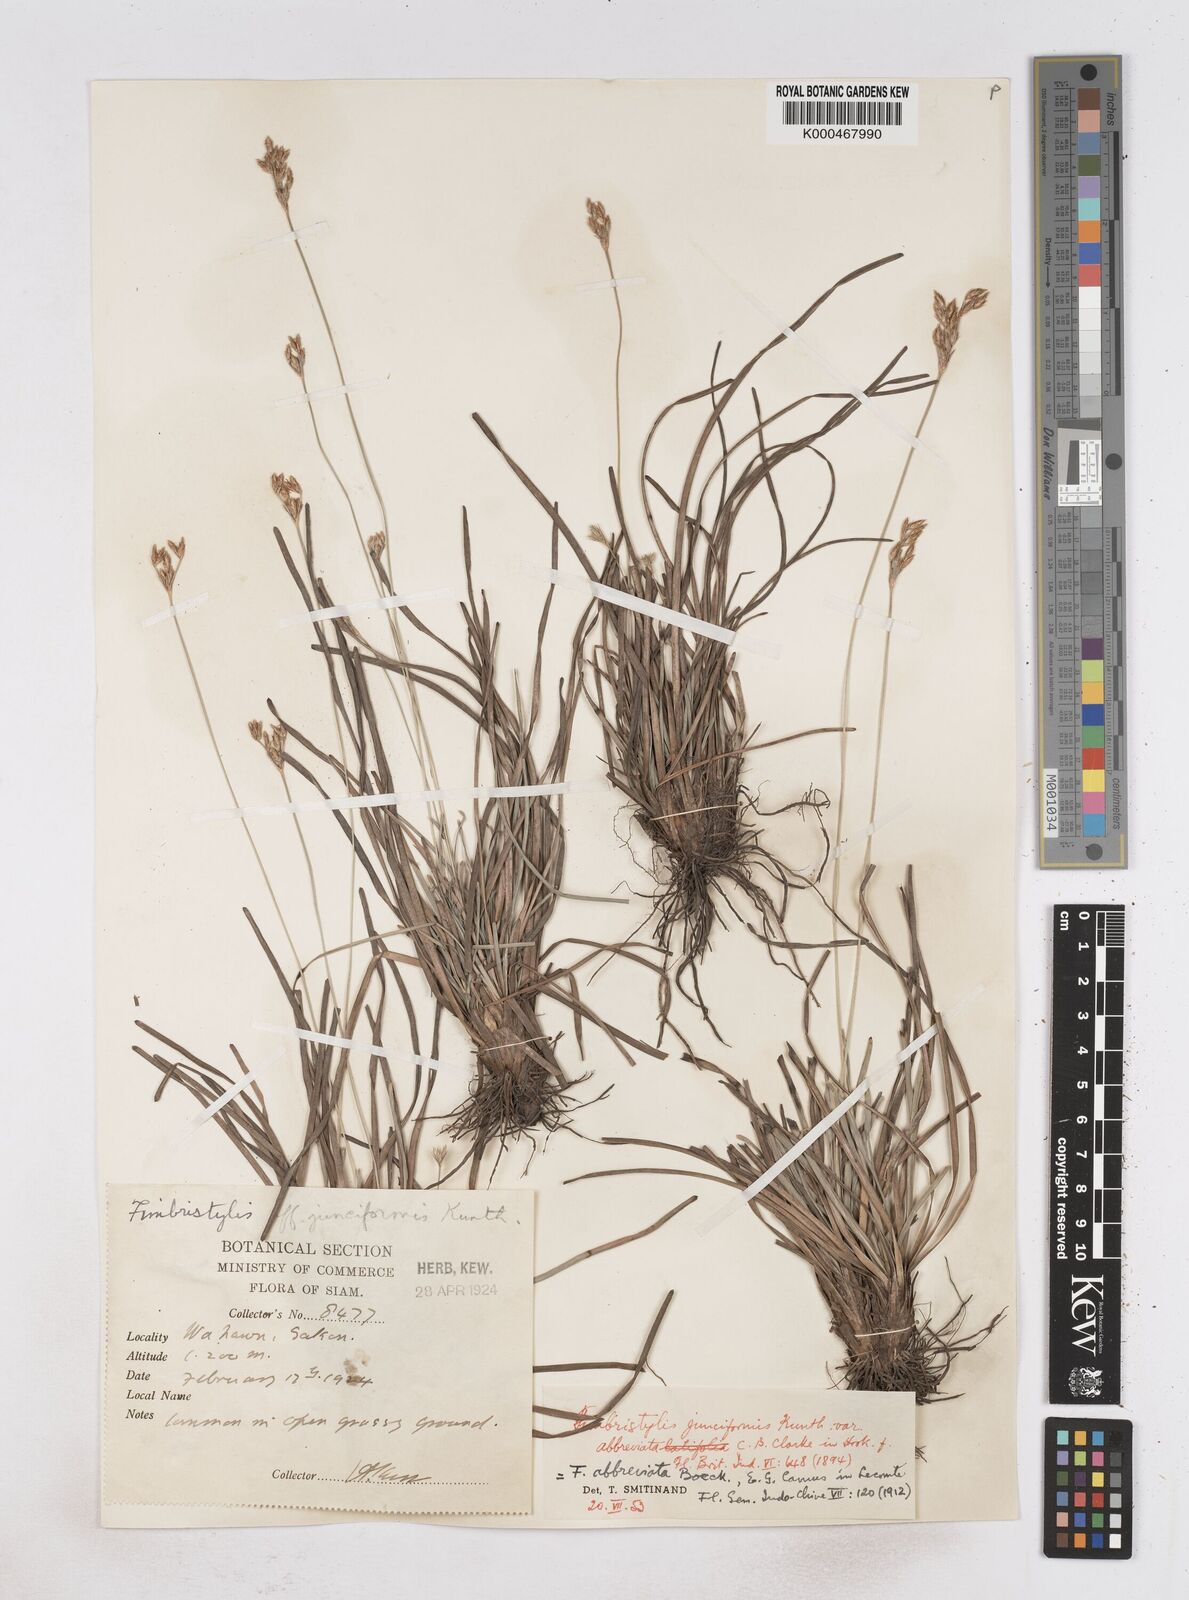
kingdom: Plantae
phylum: Tracheophyta
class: Liliopsida
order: Poales
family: Cyperaceae
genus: Fimbristylis
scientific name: Fimbristylis falcata
